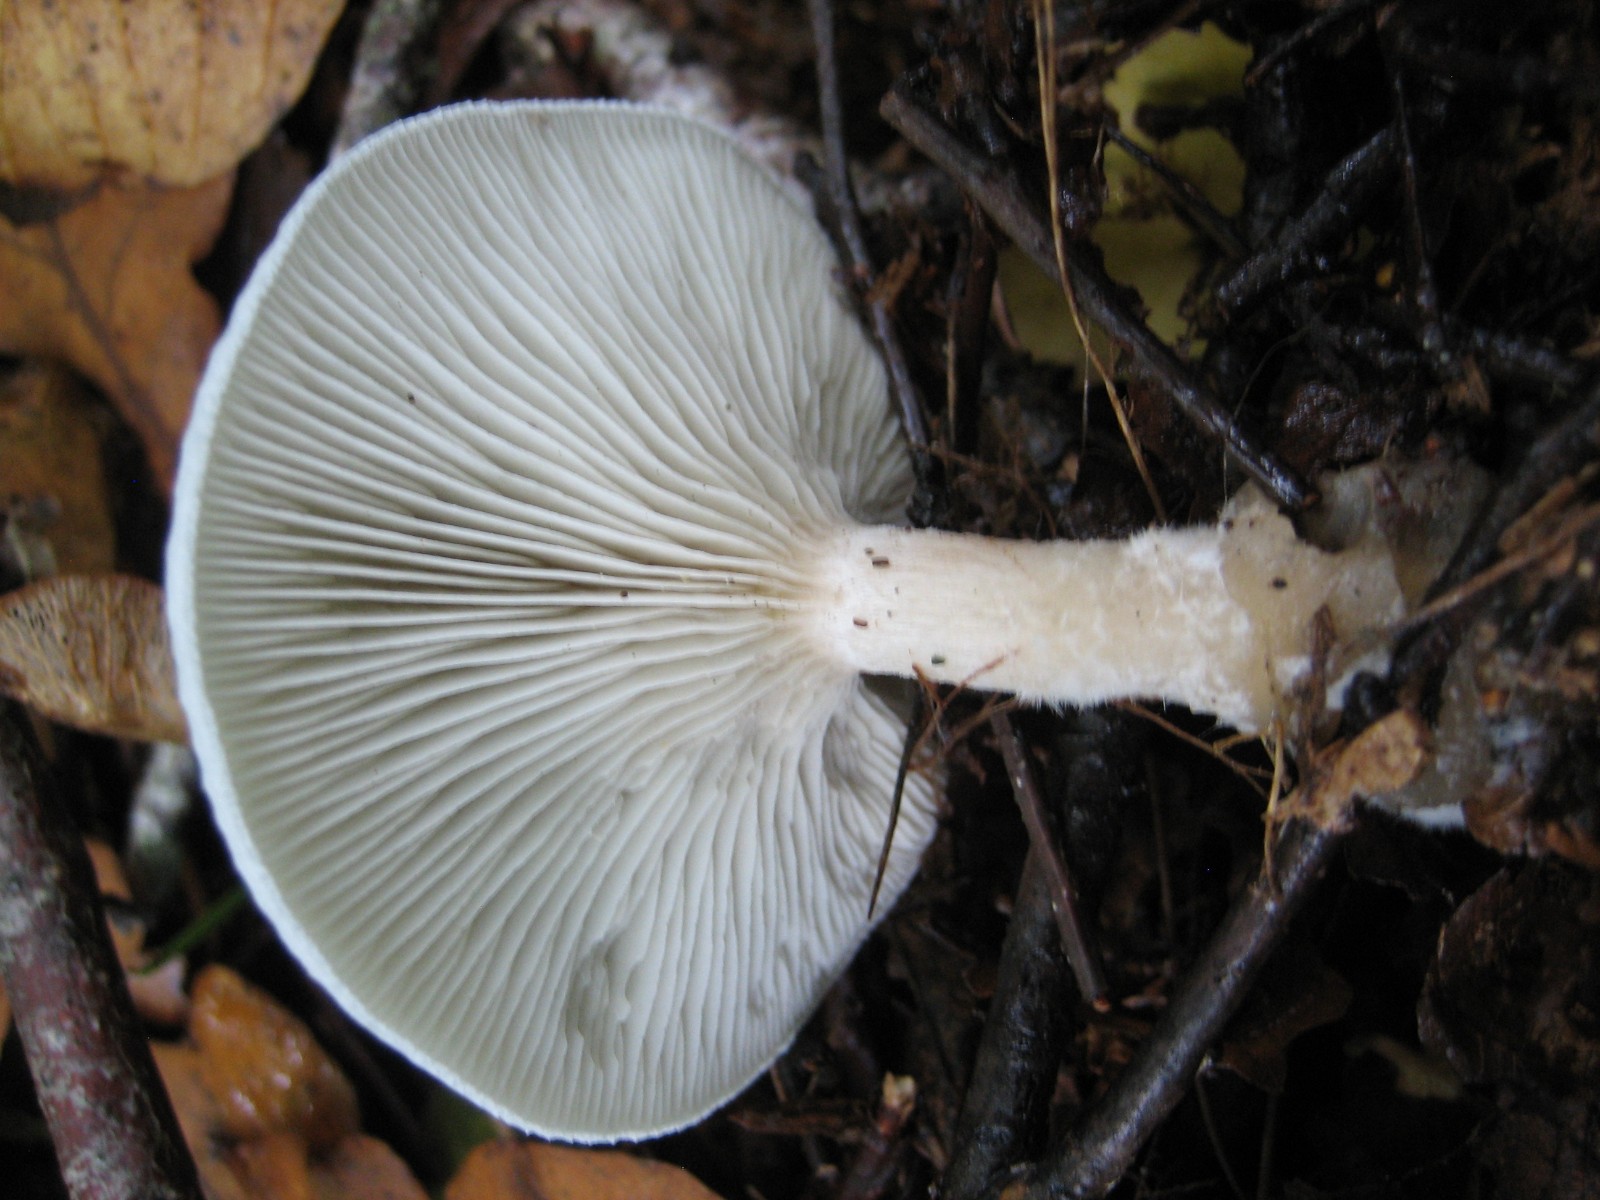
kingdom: Fungi
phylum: Basidiomycota
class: Agaricomycetes
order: Agaricales
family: Tricholomataceae
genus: Clitocybe
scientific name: Clitocybe odora
